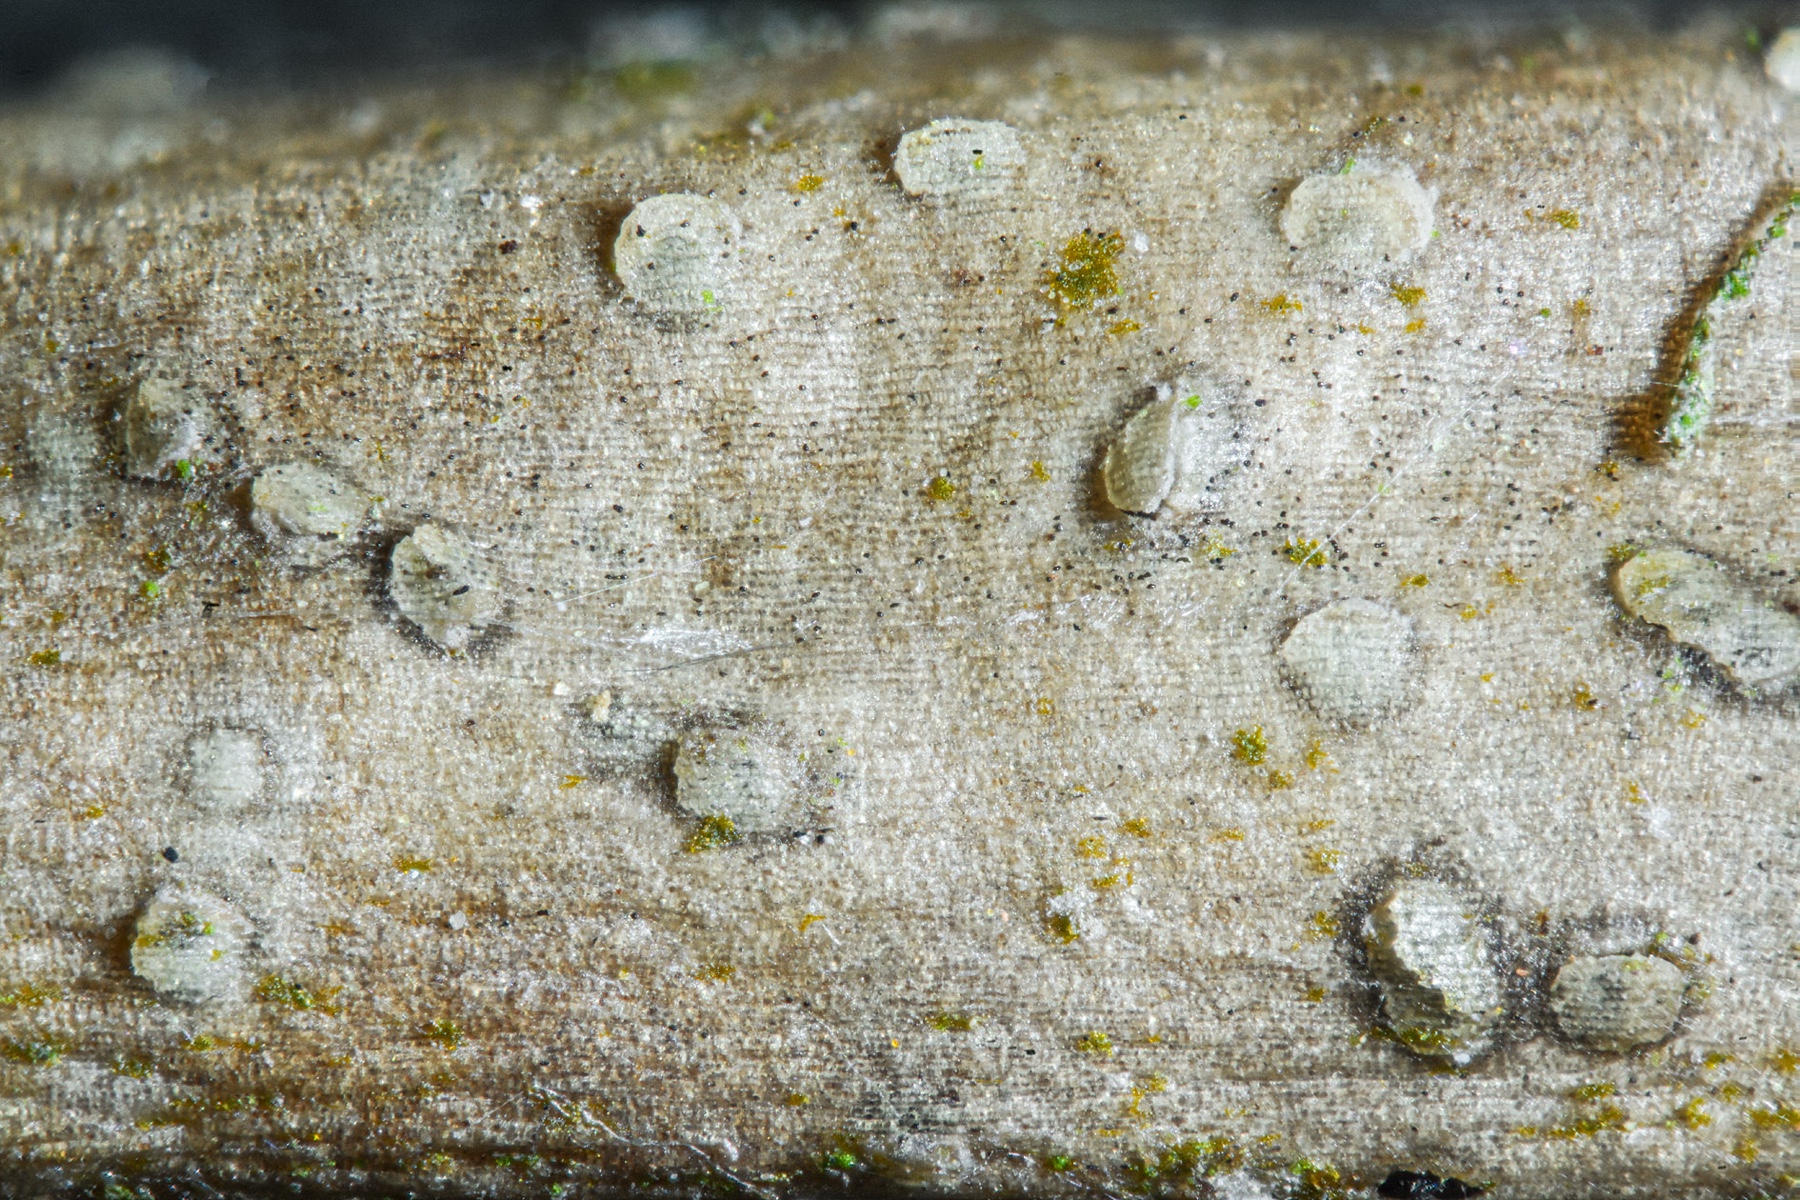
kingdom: Fungi
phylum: Ascomycota
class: Sordariomycetes
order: Xylariales
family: Vialaeaceae
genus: Vialaea
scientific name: Vialaea insculpta
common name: kristtornkerne
